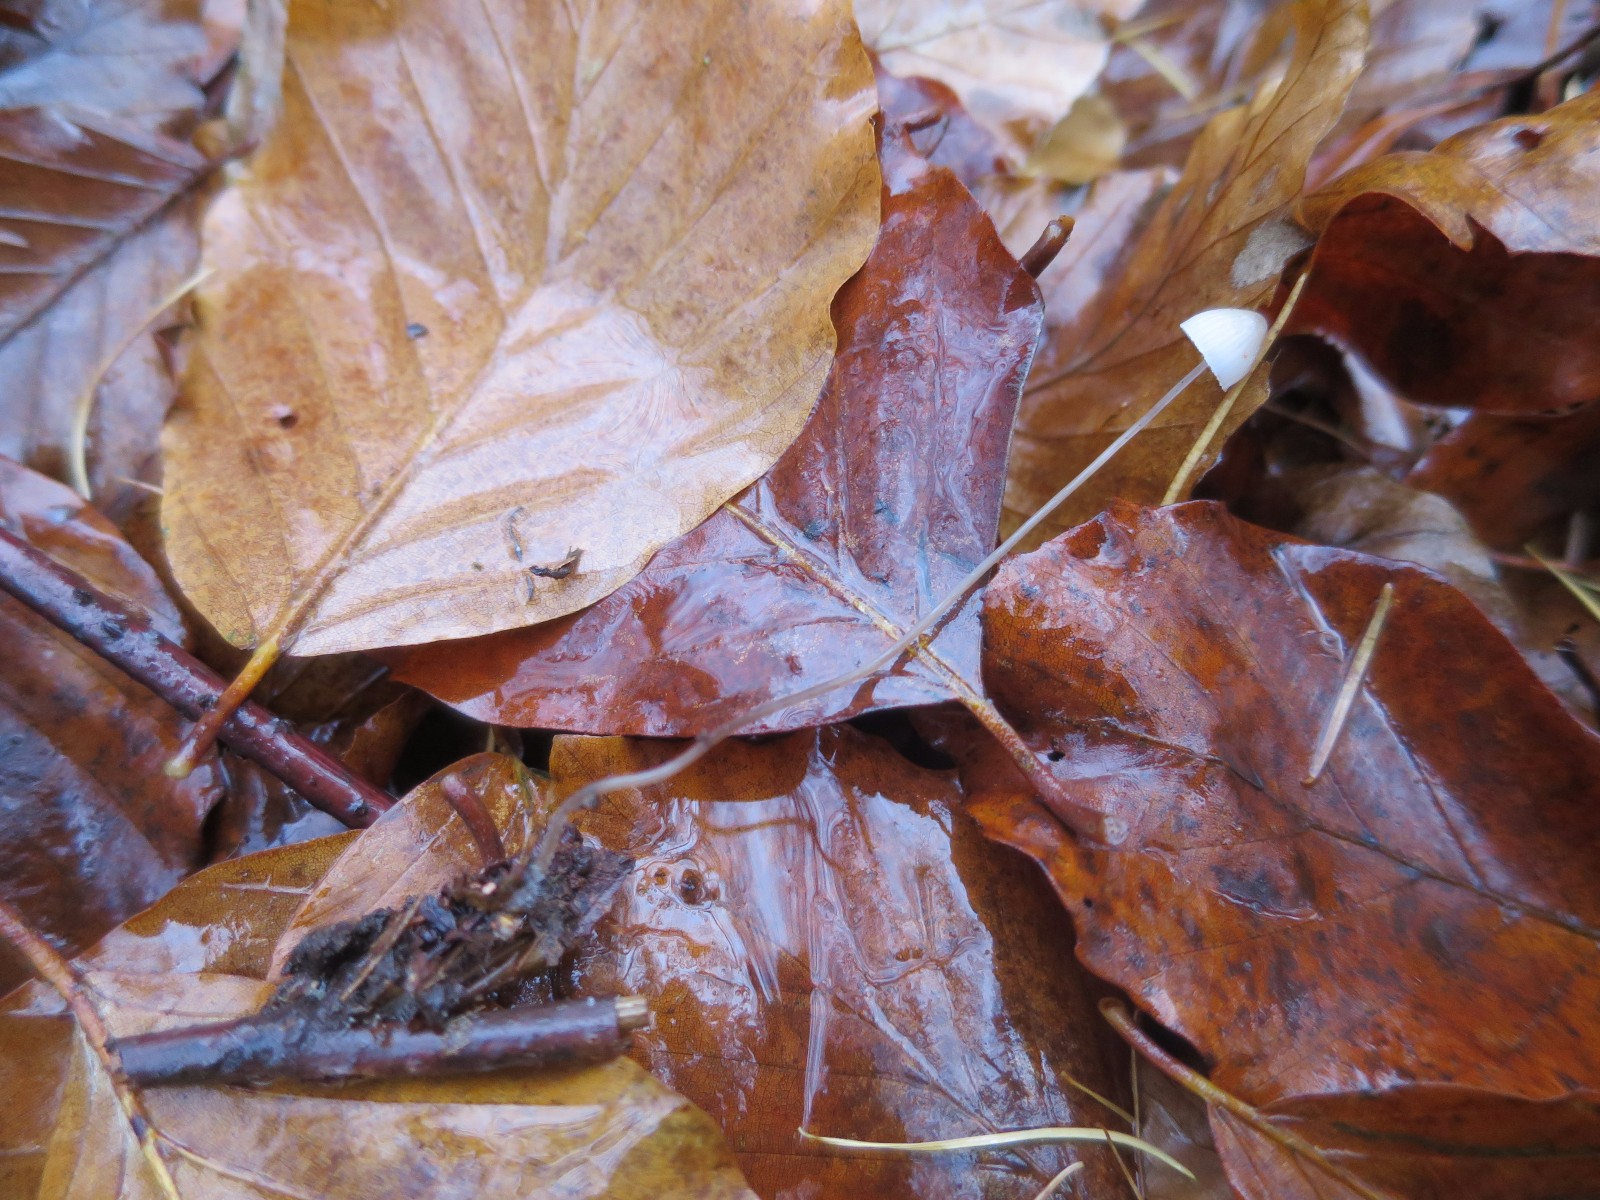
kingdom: Fungi
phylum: Basidiomycota
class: Agaricomycetes
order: Agaricales
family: Mycenaceae
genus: Mycena
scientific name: Mycena vitilis
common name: blankstokket huesvamp
